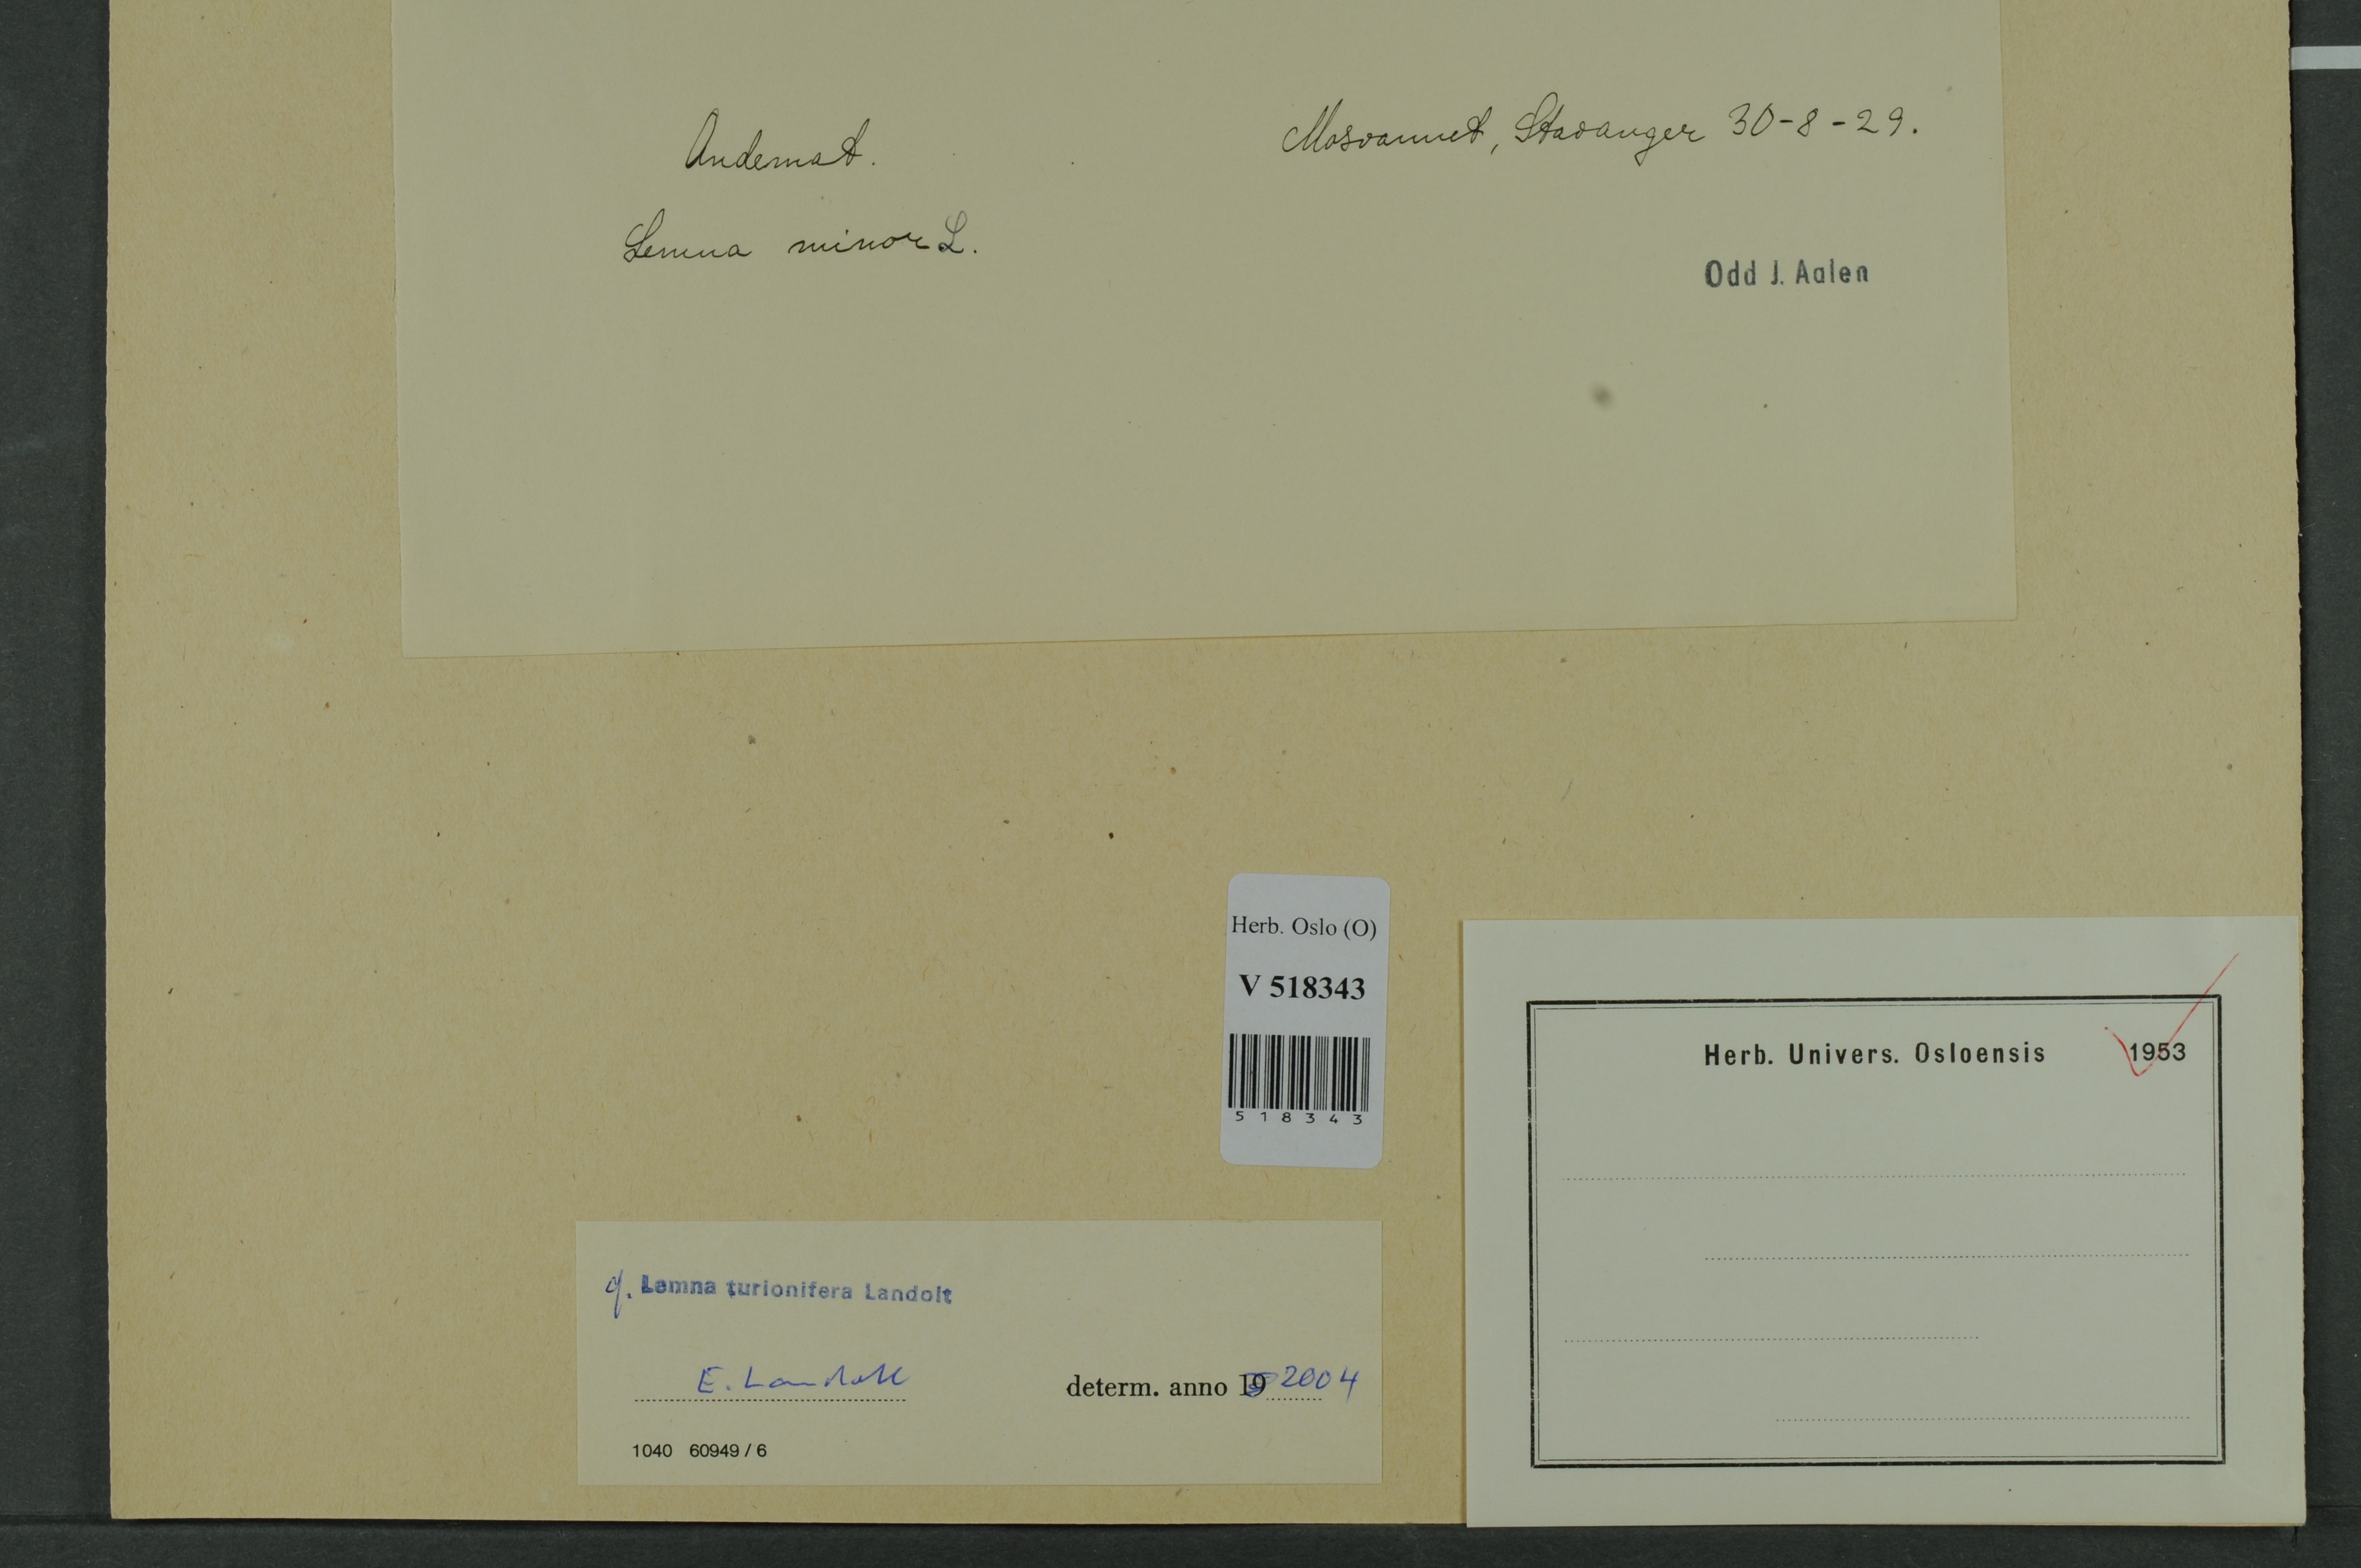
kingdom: Plantae
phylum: Tracheophyta
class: Liliopsida
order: Alismatales
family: Araceae
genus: Lemna
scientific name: Lemna turionifera
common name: Perennial duckweed
